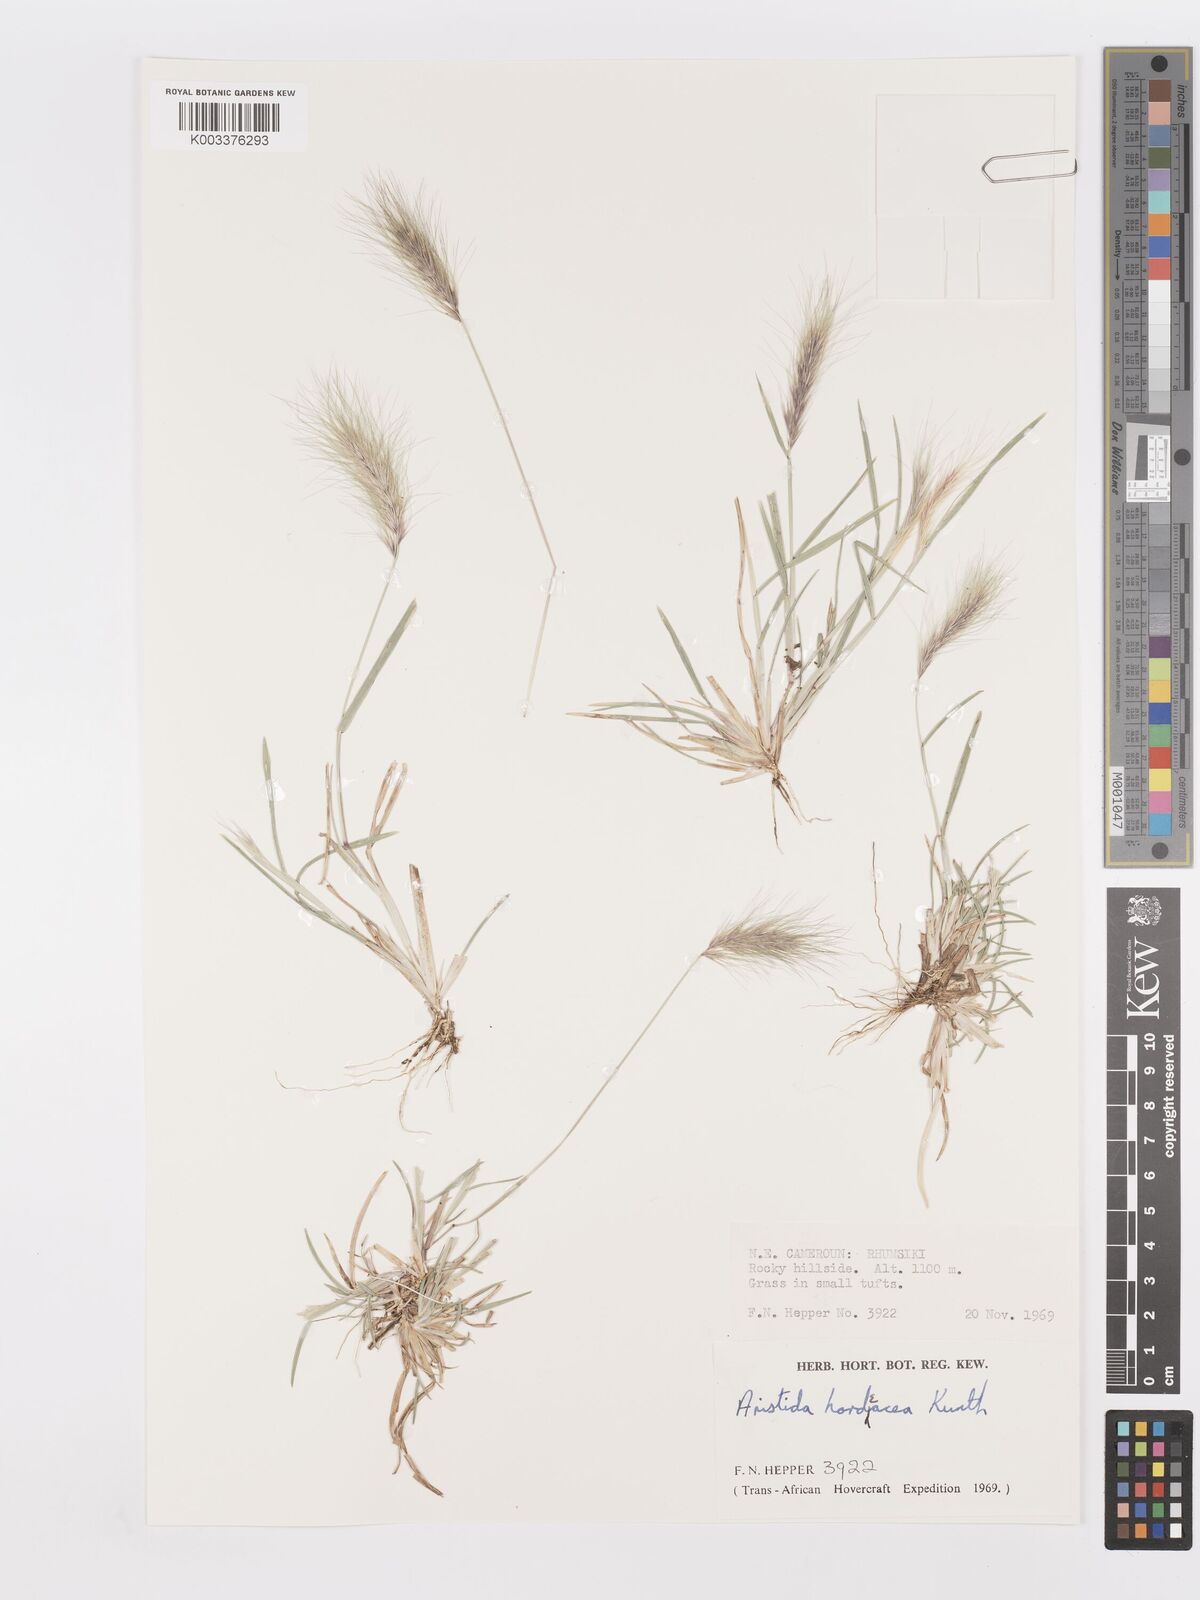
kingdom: Plantae
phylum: Tracheophyta
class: Liliopsida
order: Poales
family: Poaceae
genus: Aristida
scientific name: Aristida hordeacea
